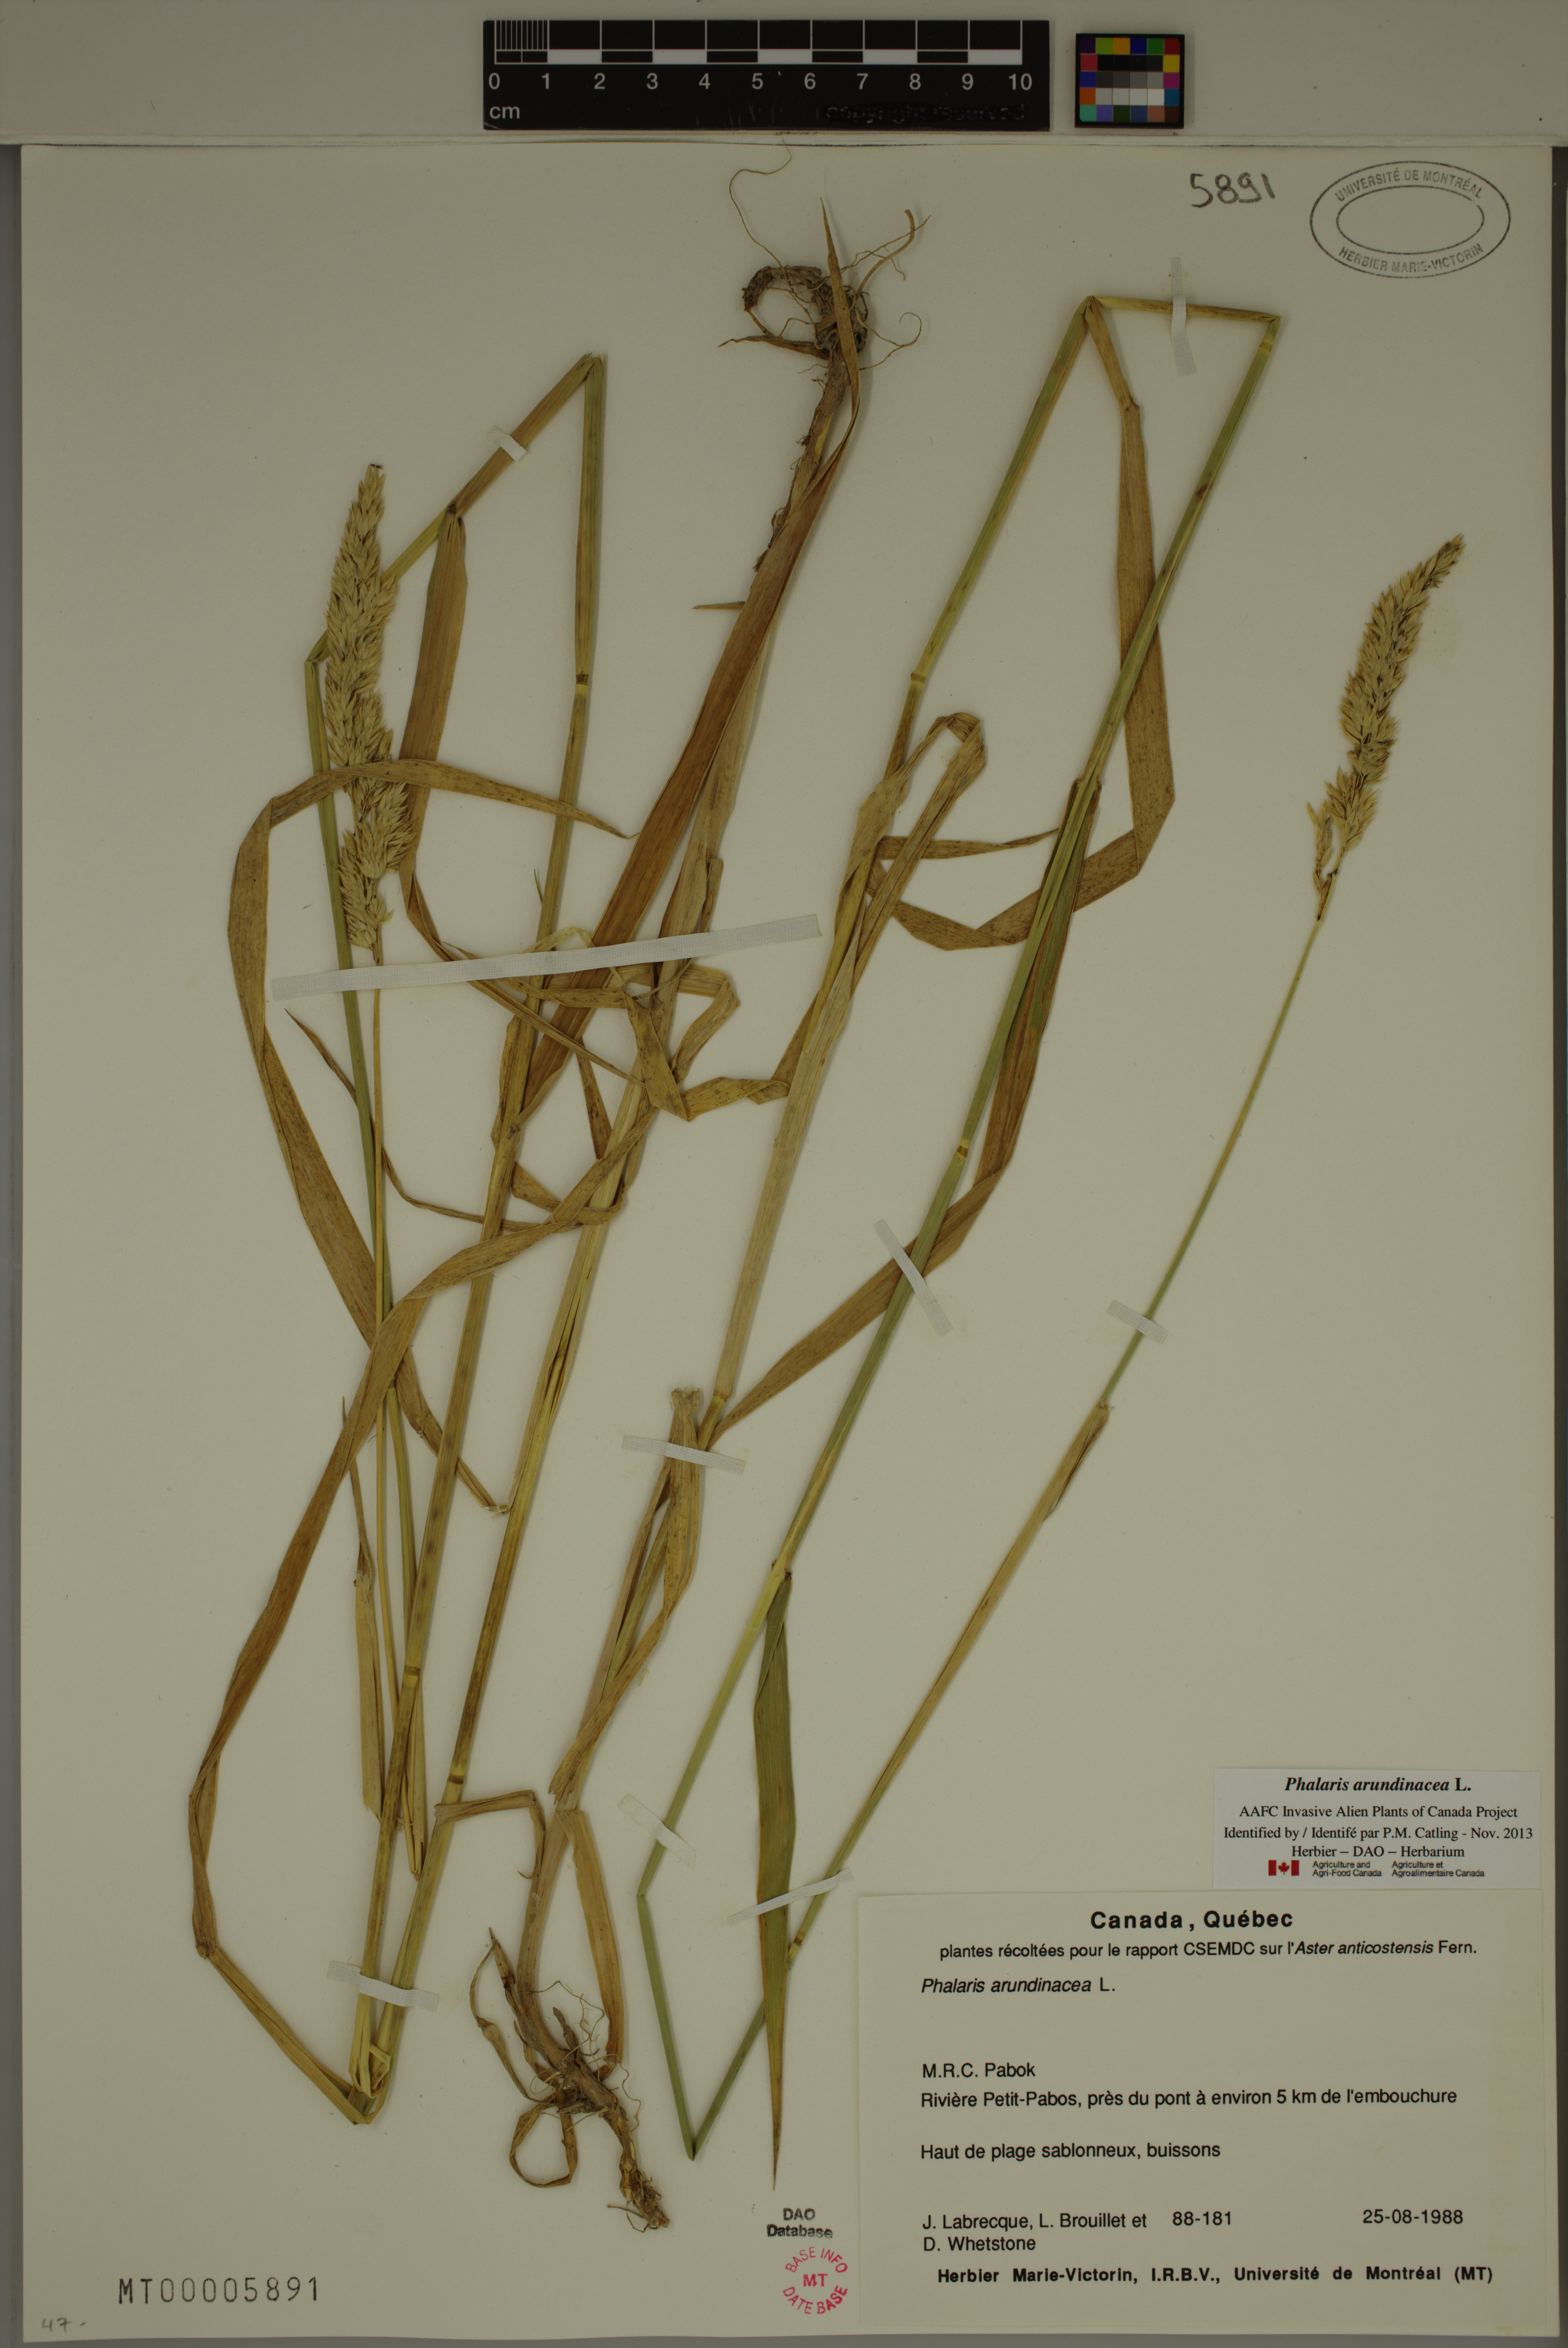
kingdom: Plantae
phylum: Tracheophyta
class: Liliopsida
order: Poales
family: Poaceae
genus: Phalaris
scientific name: Phalaris arundinacea
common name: Reed canary-grass
